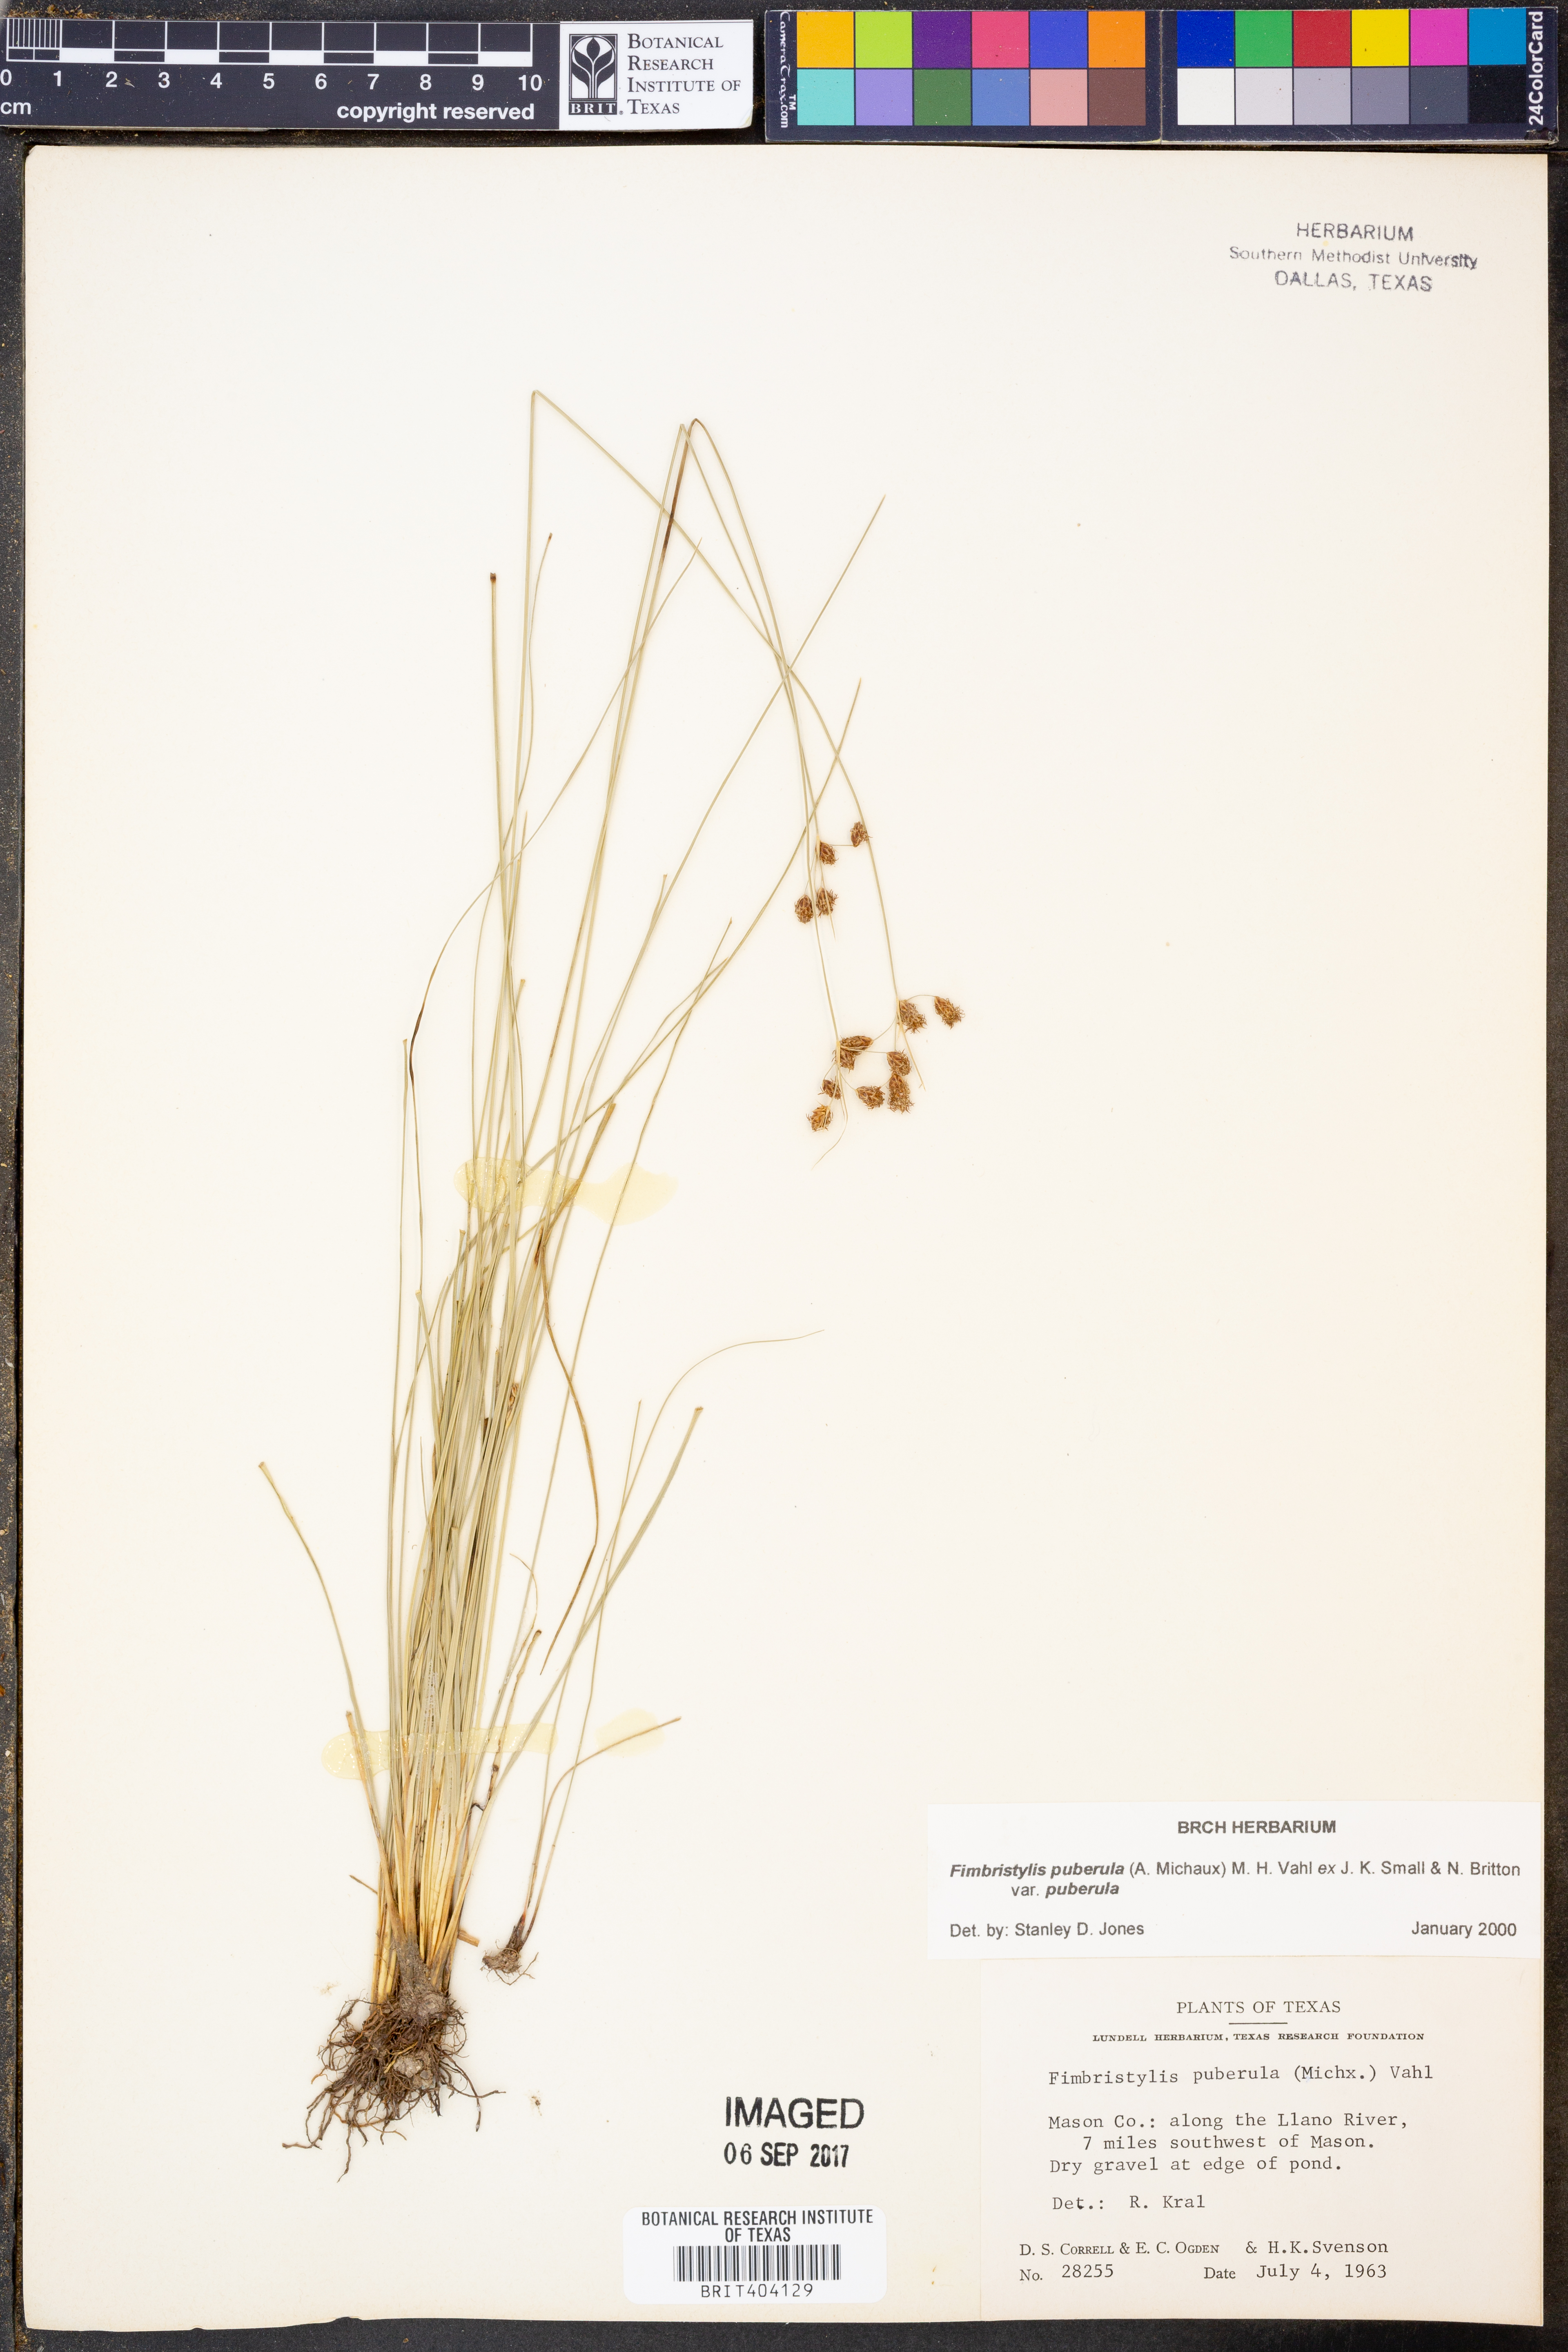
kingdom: Plantae
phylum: Tracheophyta
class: Liliopsida
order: Poales
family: Cyperaceae
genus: Fimbristylis
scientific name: Fimbristylis puberula
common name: Hairy fimbristylis
